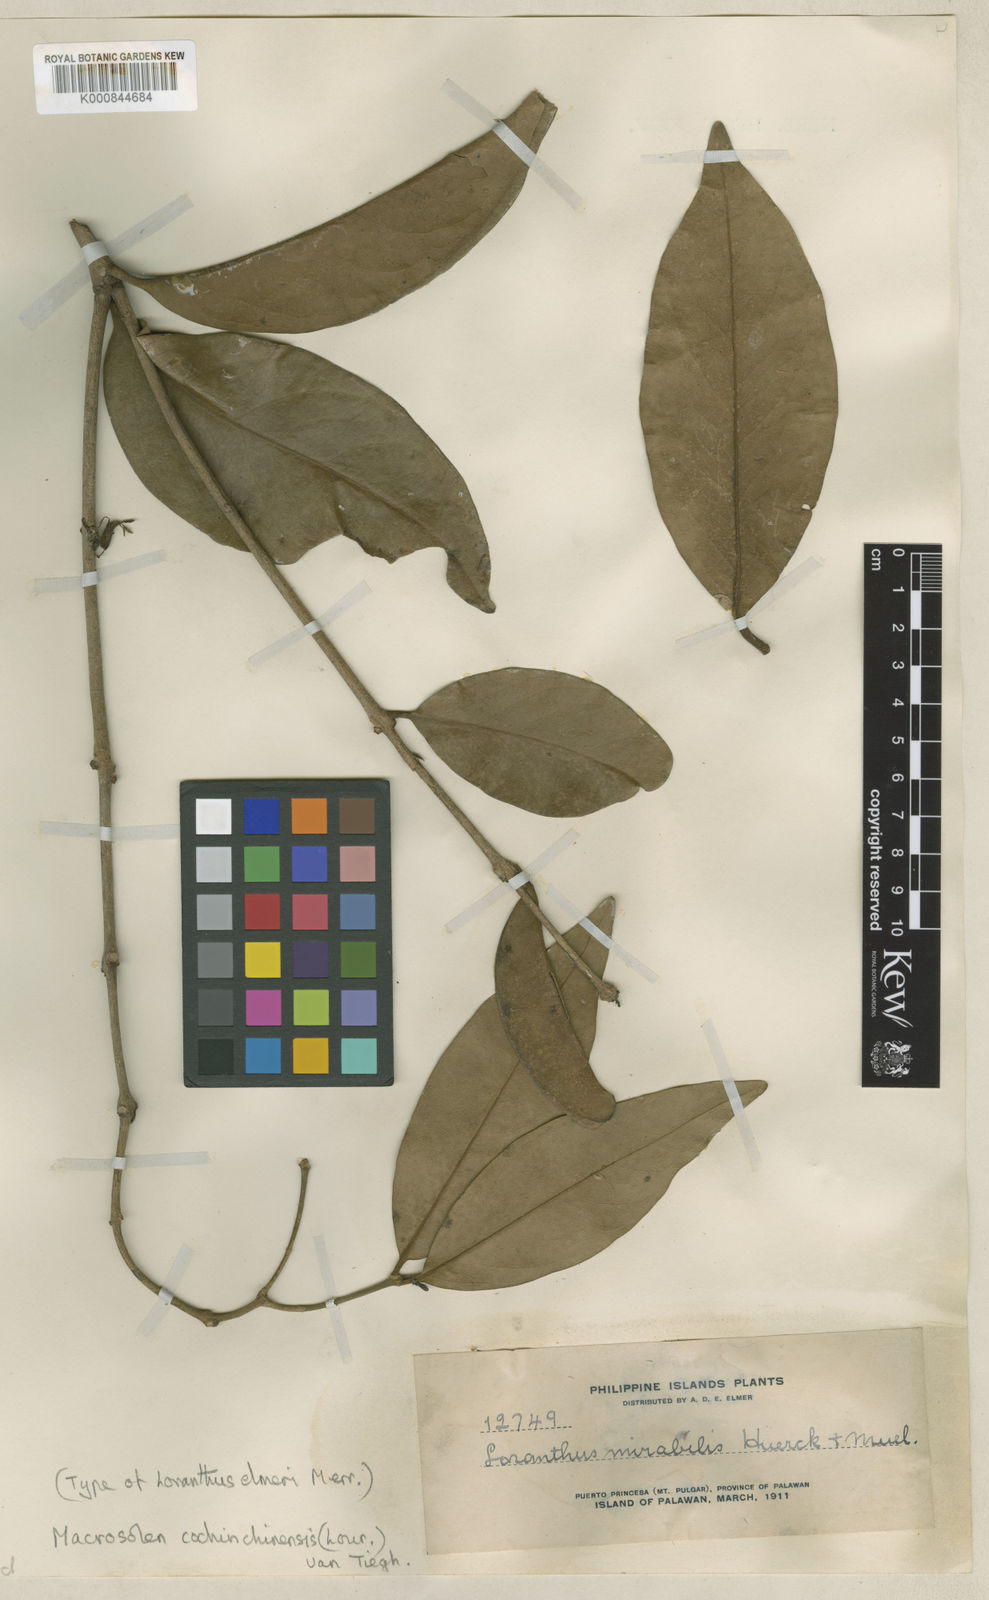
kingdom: Plantae
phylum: Tracheophyta
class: Magnoliopsida
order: Santalales
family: Loranthaceae
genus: Macrosolen
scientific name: Macrosolen cochinchinensis
